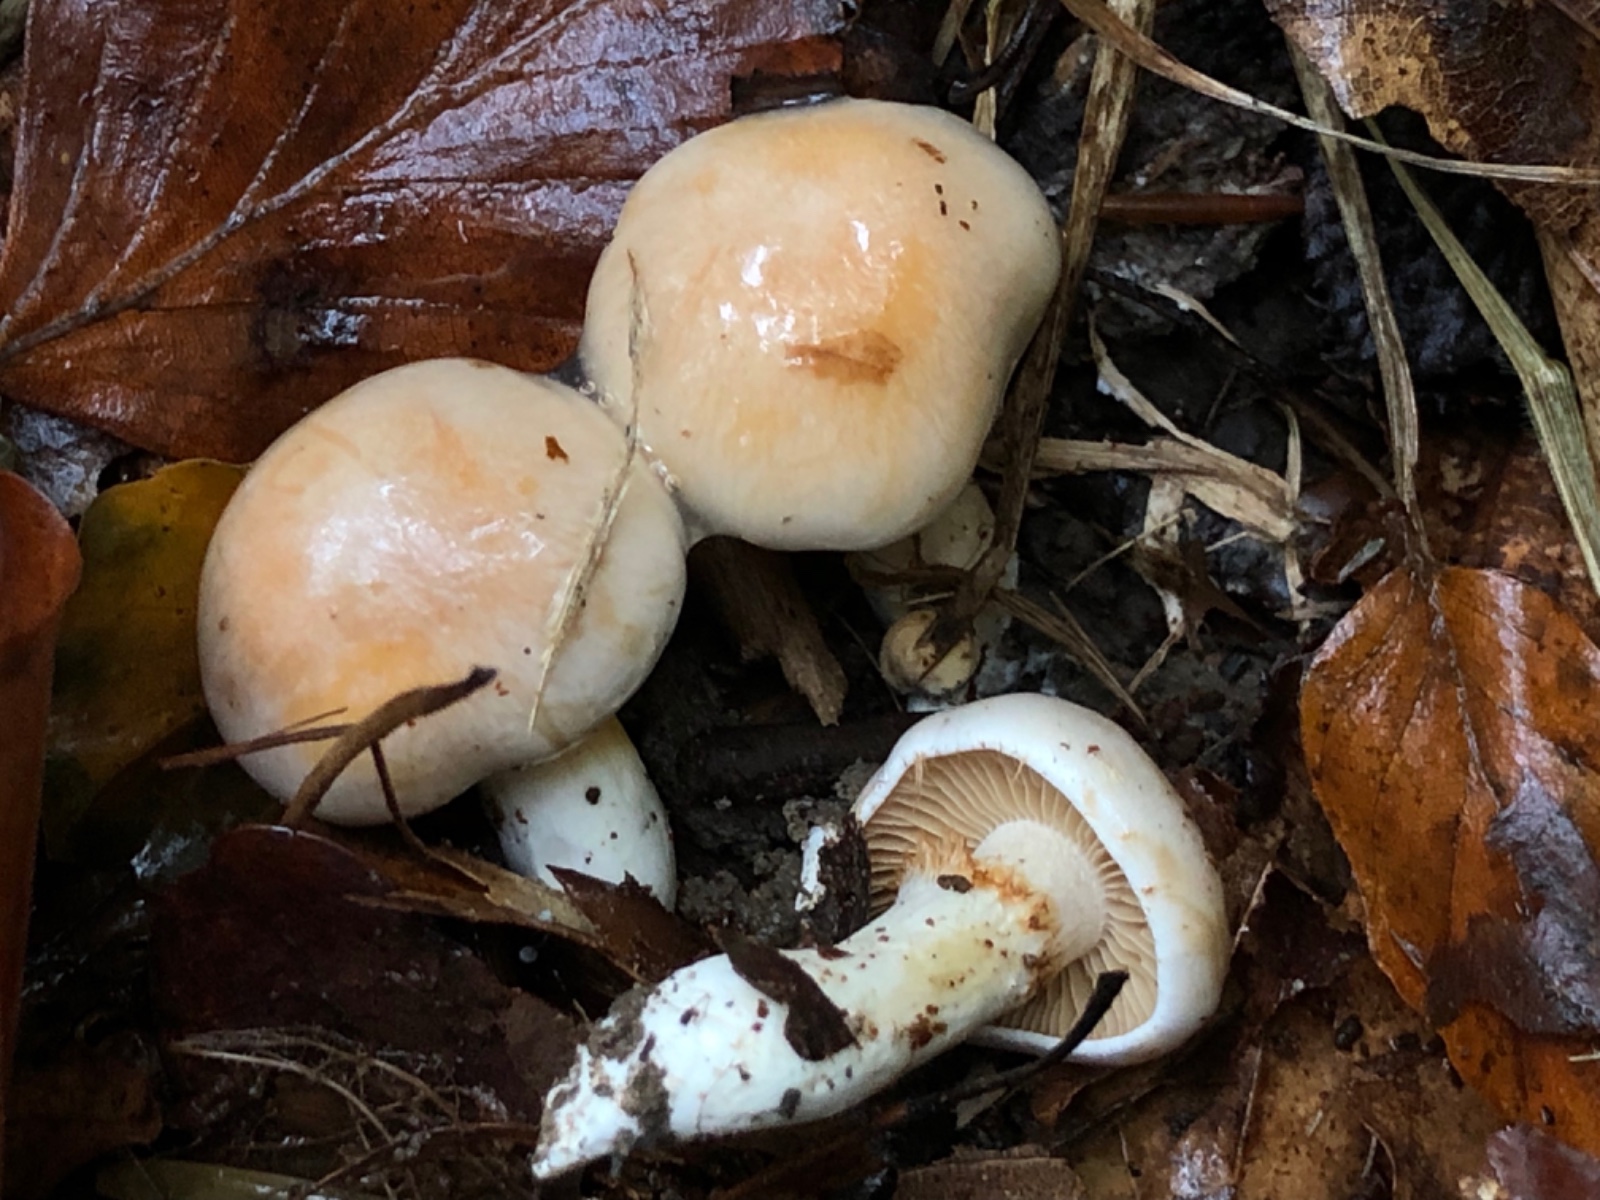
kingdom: Fungi
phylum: Basidiomycota
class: Agaricomycetes
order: Agaricales
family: Cortinariaceae
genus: Thaxterogaster
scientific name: Thaxterogaster
